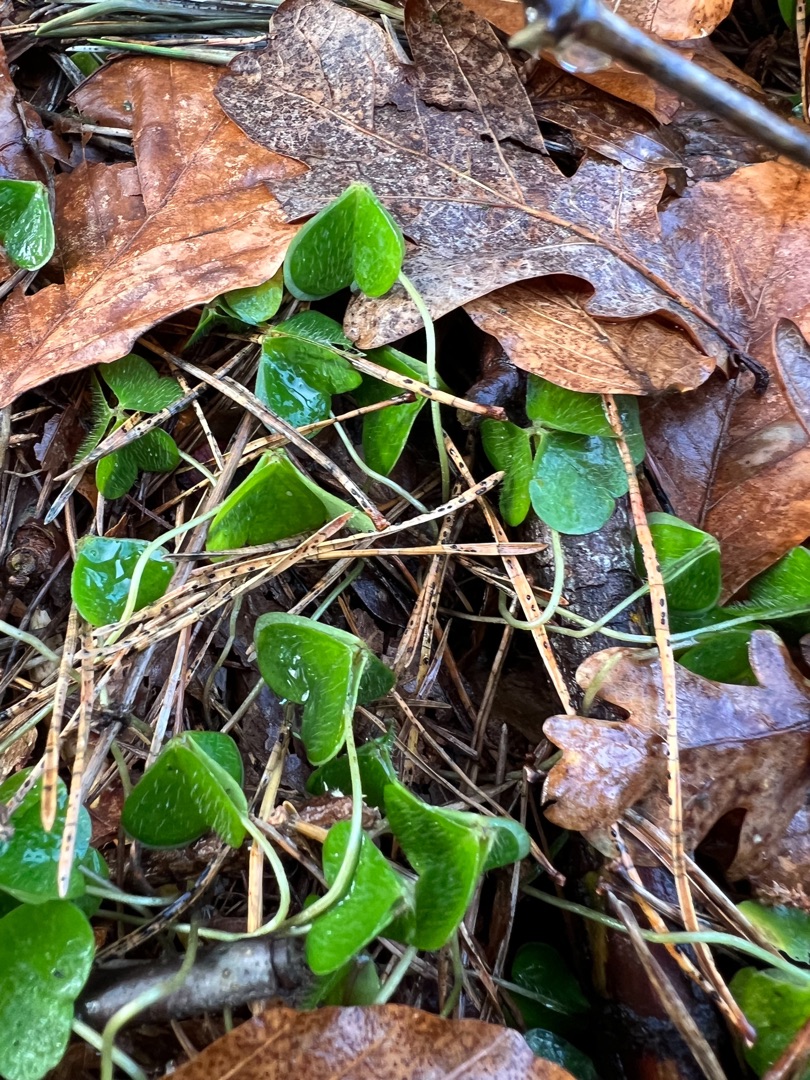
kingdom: Plantae
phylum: Tracheophyta
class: Magnoliopsida
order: Oxalidales
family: Oxalidaceae
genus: Oxalis
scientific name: Oxalis acetosella
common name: Skovsyre
